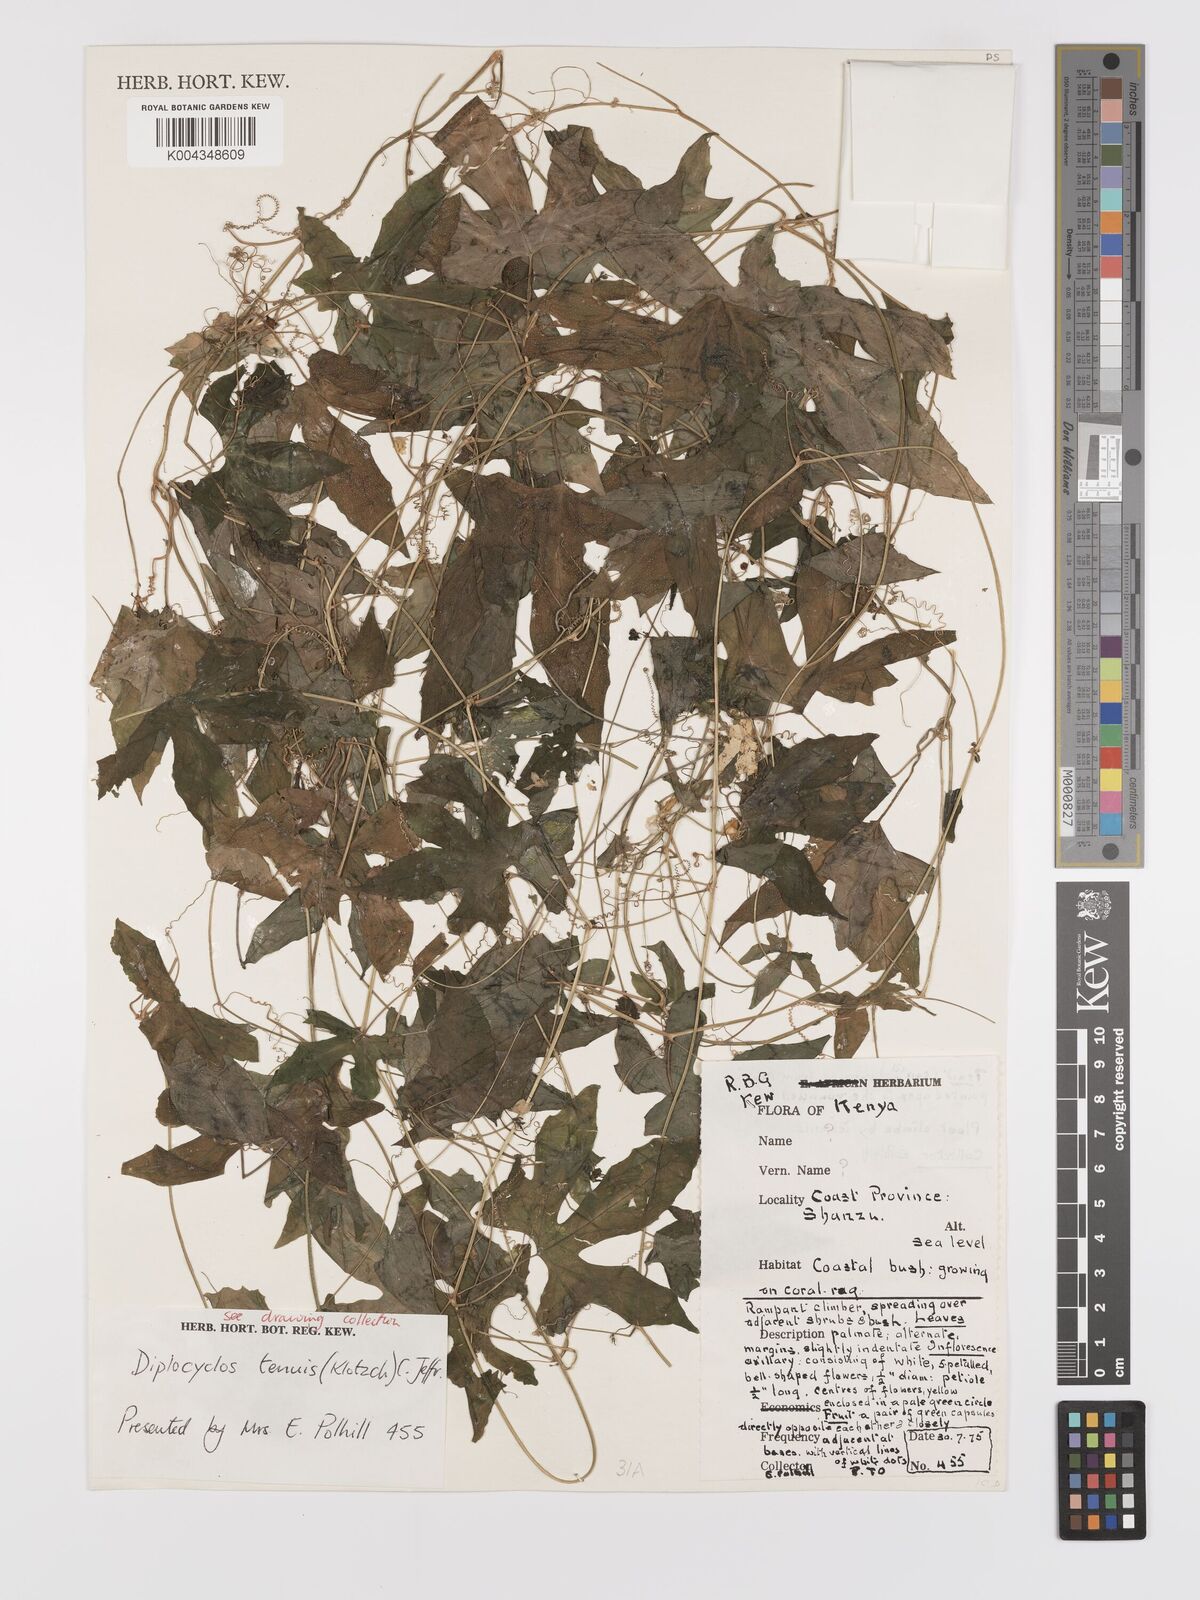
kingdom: Plantae
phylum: Tracheophyta
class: Magnoliopsida
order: Cucurbitales
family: Cucurbitaceae
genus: Diplocyclos
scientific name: Diplocyclos tenuis
